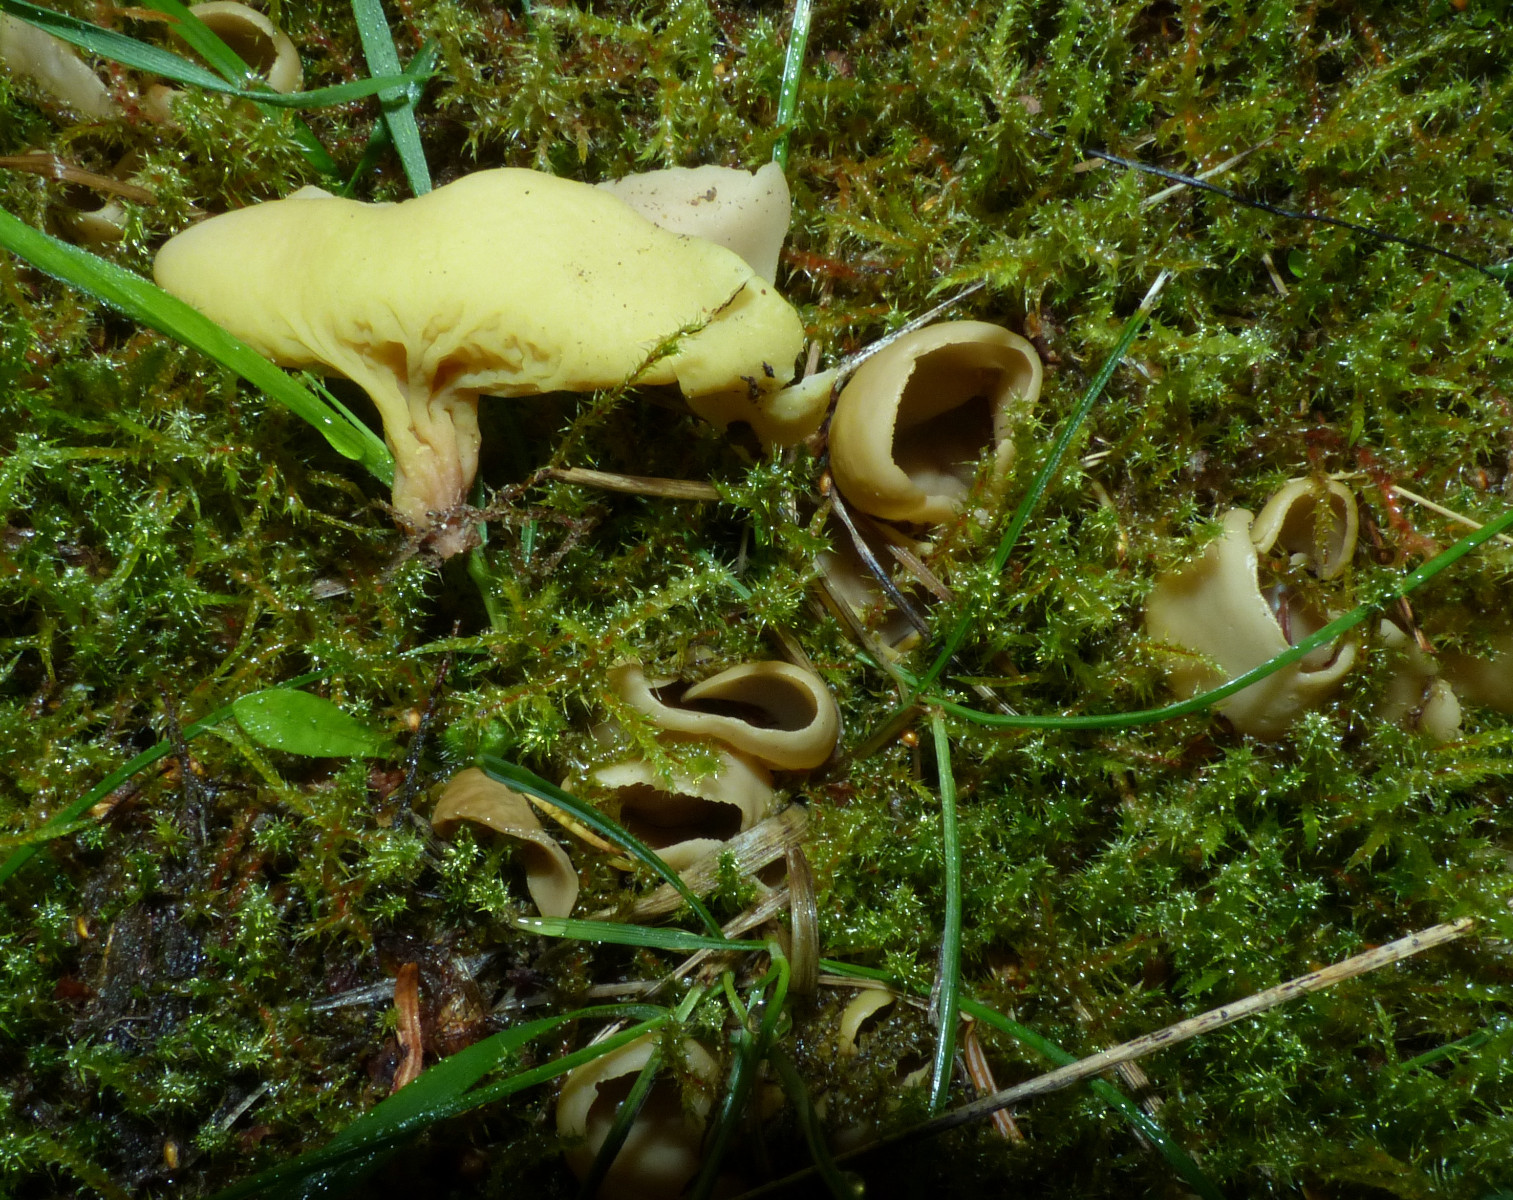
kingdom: Fungi
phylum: Ascomycota
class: Pezizomycetes
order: Pezizales
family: Otideaceae
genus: Otidea
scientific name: Otidea
